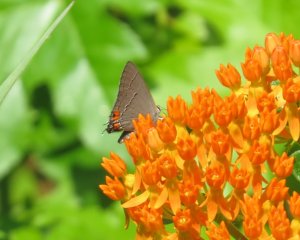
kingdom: Animalia
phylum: Arthropoda
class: Insecta
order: Lepidoptera
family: Lycaenidae
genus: Strymon
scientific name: Strymon melinus
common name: Gray Hairstreak
